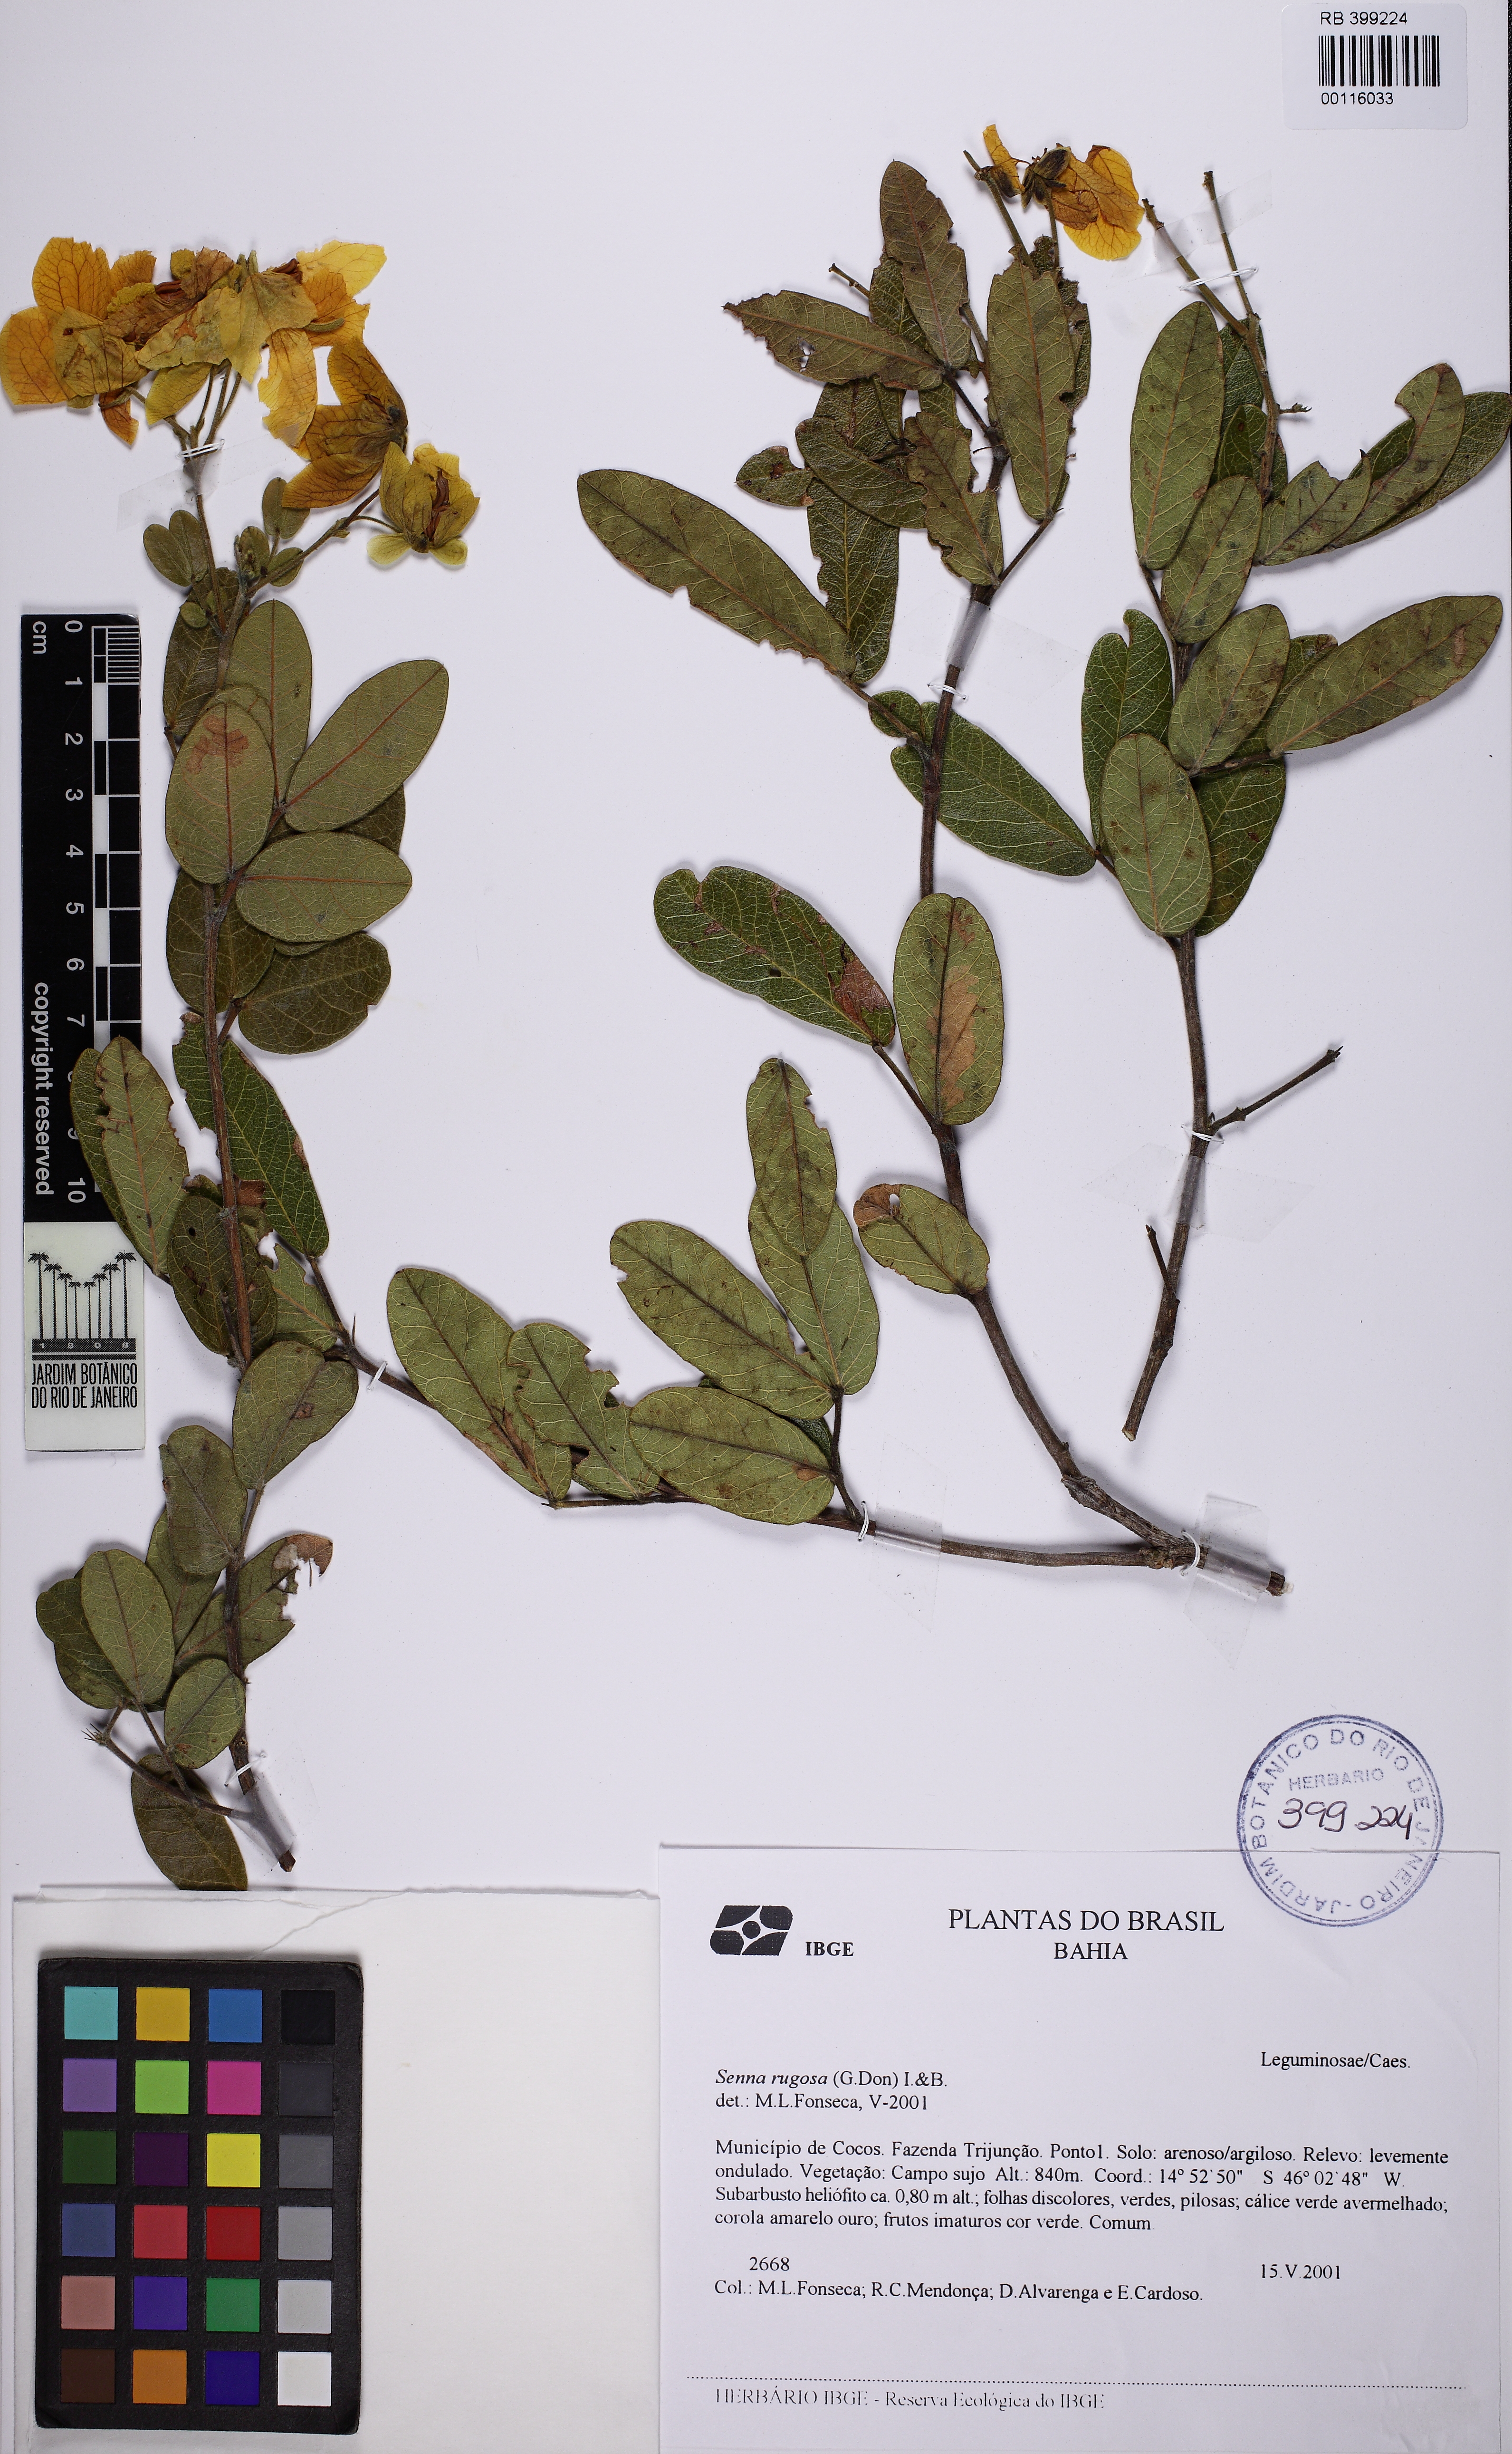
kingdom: Plantae
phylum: Tracheophyta
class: Magnoliopsida
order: Fabales
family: Fabaceae
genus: Senna
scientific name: Senna rugosa
